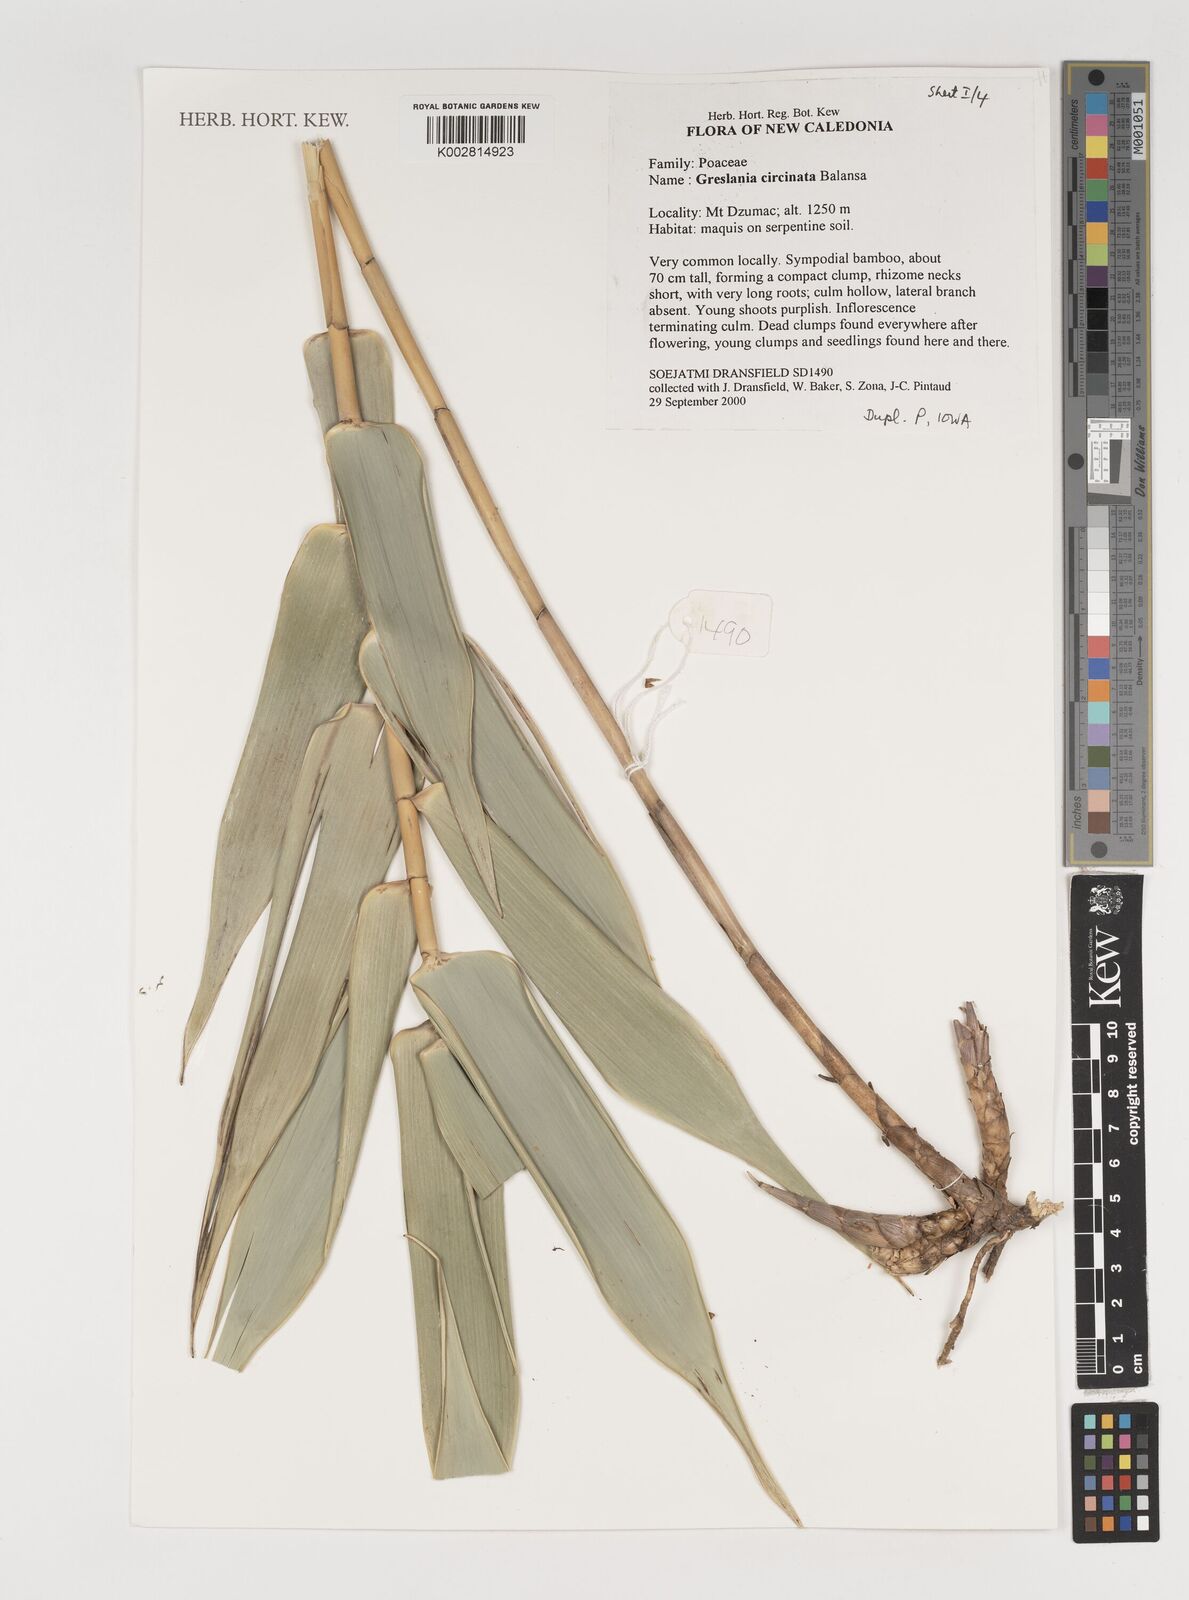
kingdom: Plantae
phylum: Tracheophyta
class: Liliopsida
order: Poales
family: Poaceae
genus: Greslania
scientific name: Greslania circinata
